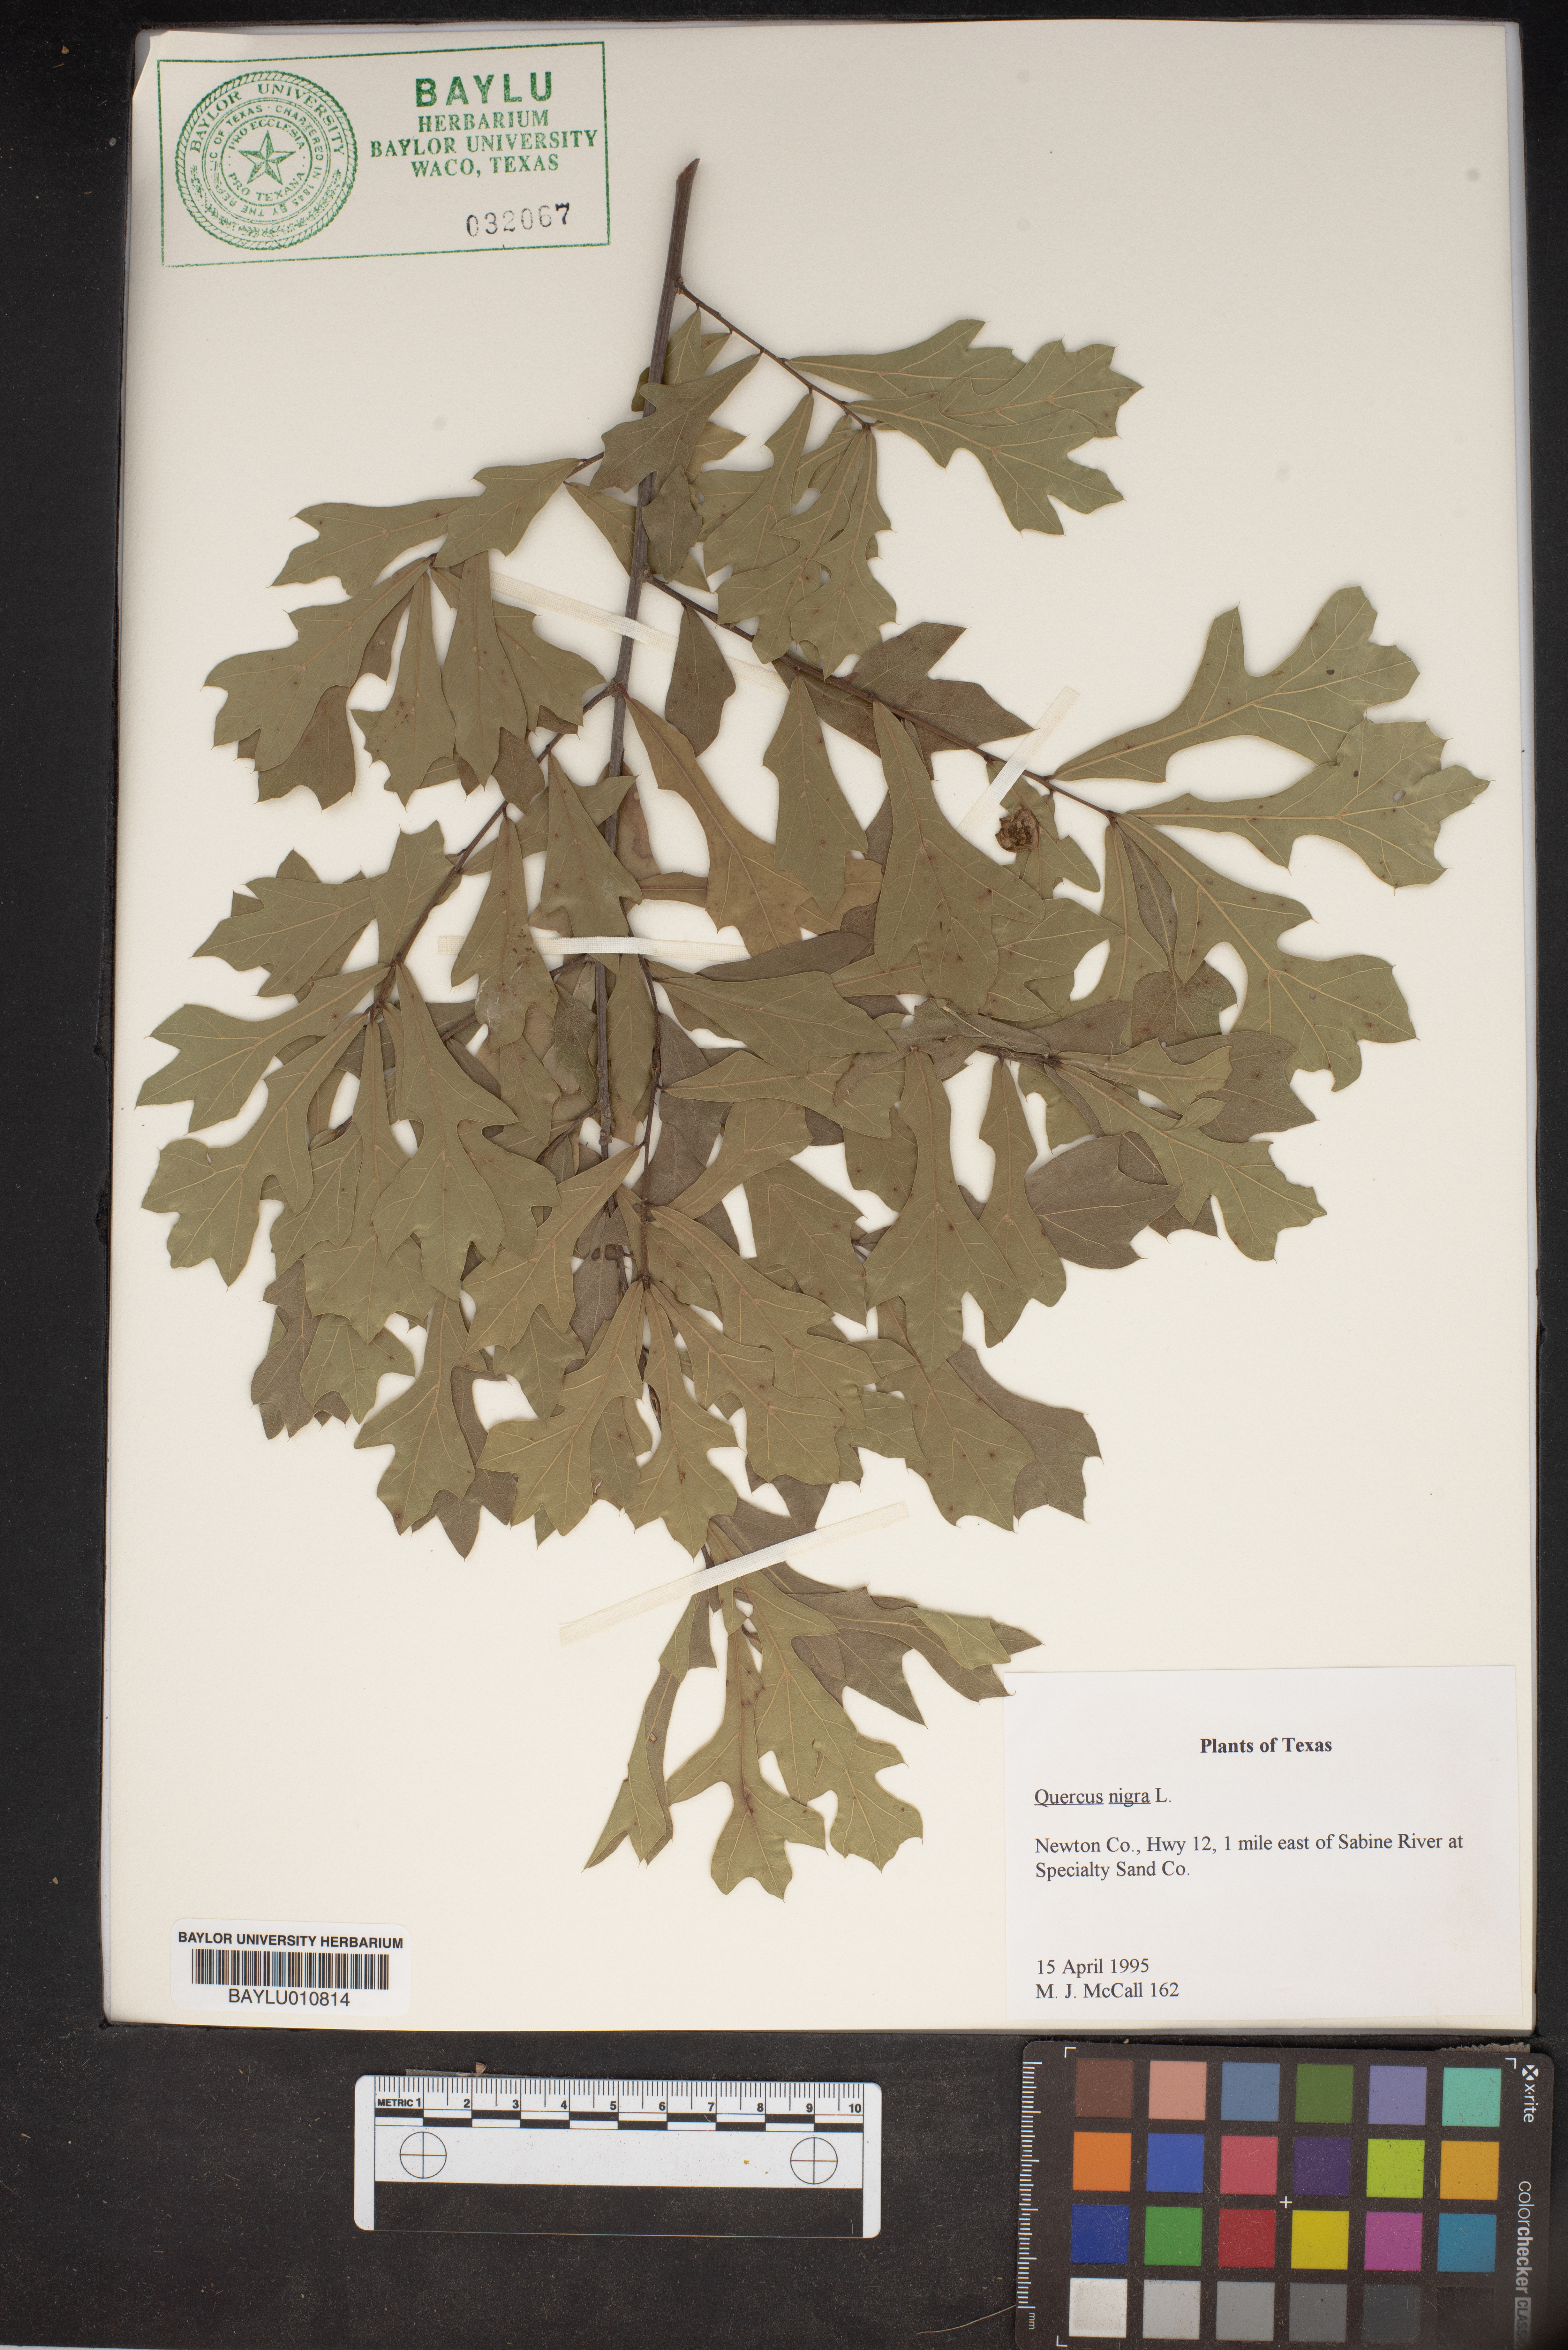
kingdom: Plantae
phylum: Tracheophyta
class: Magnoliopsida
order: Fagales
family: Fagaceae
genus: Quercus
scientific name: Quercus nigra
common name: Water oak
